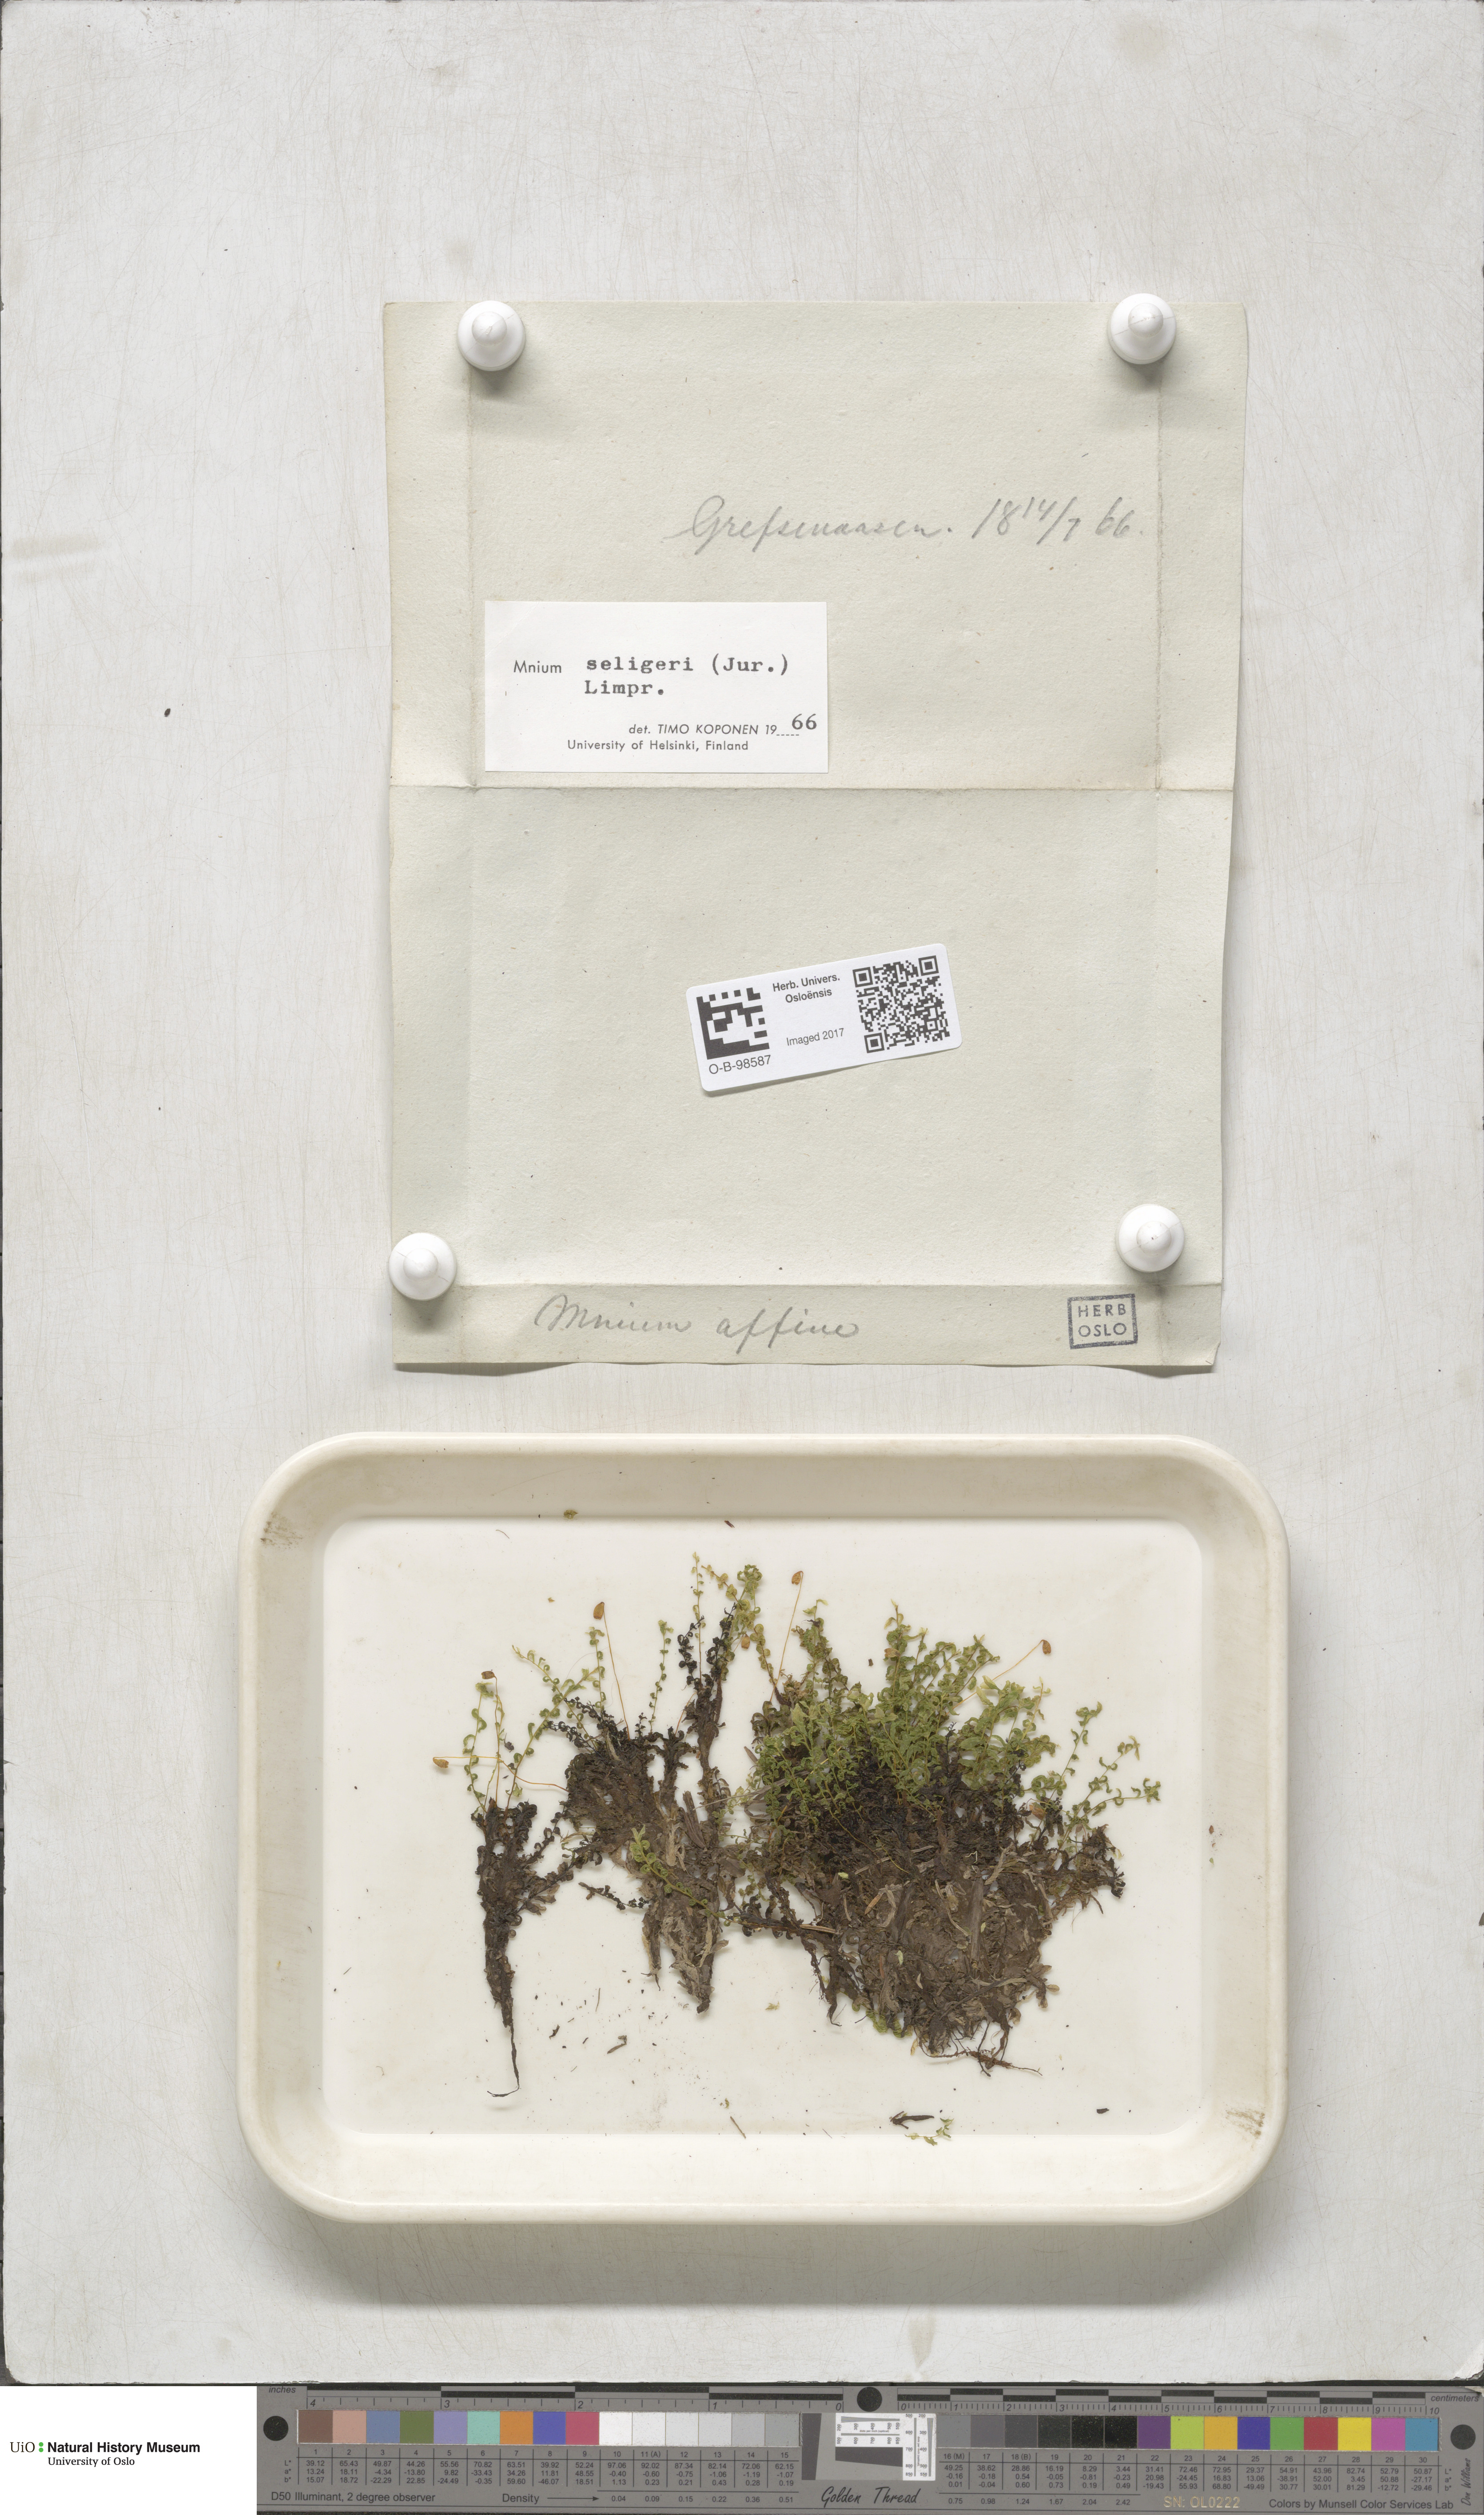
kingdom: Plantae
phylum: Bryophyta
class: Bryopsida
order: Bryales
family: Mniaceae
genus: Plagiomnium
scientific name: Plagiomnium elatum
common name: Tall thyme-moss
